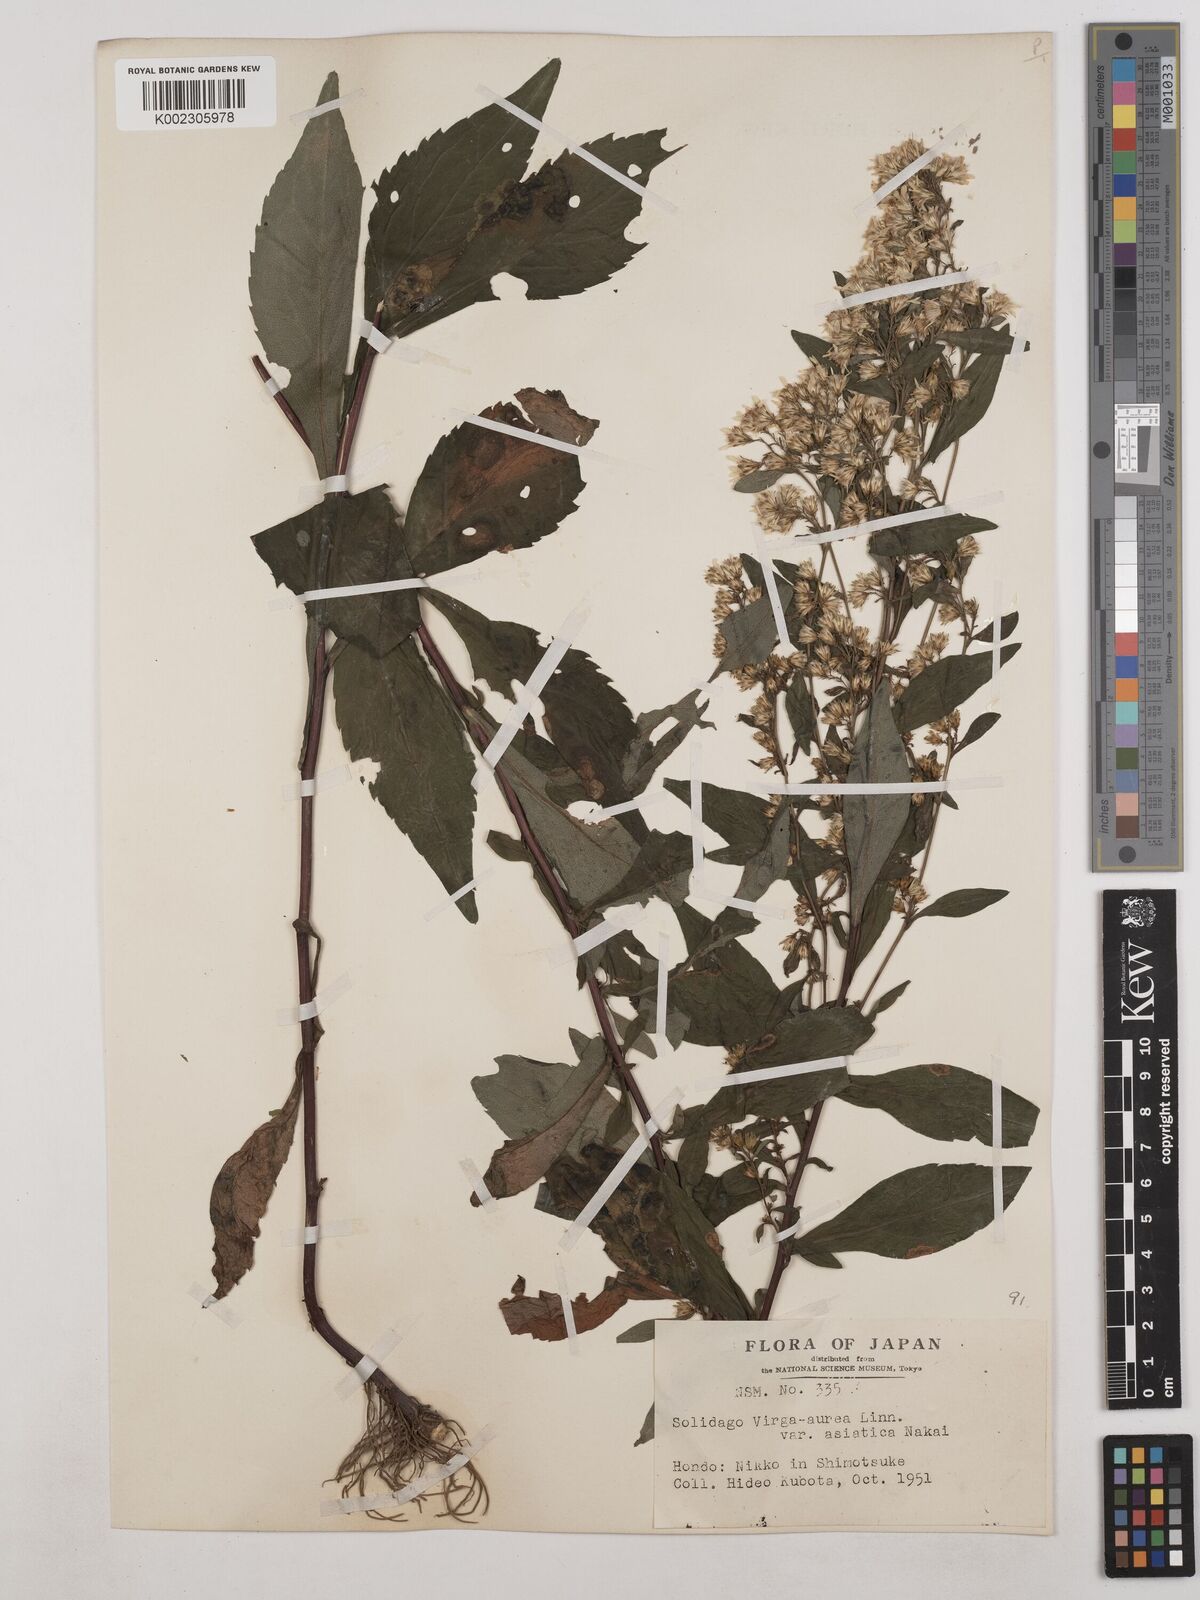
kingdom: Plantae
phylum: Tracheophyta
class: Magnoliopsida
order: Asterales
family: Asteraceae
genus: Solidago
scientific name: Solidago virgaurea
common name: Goldenrod
